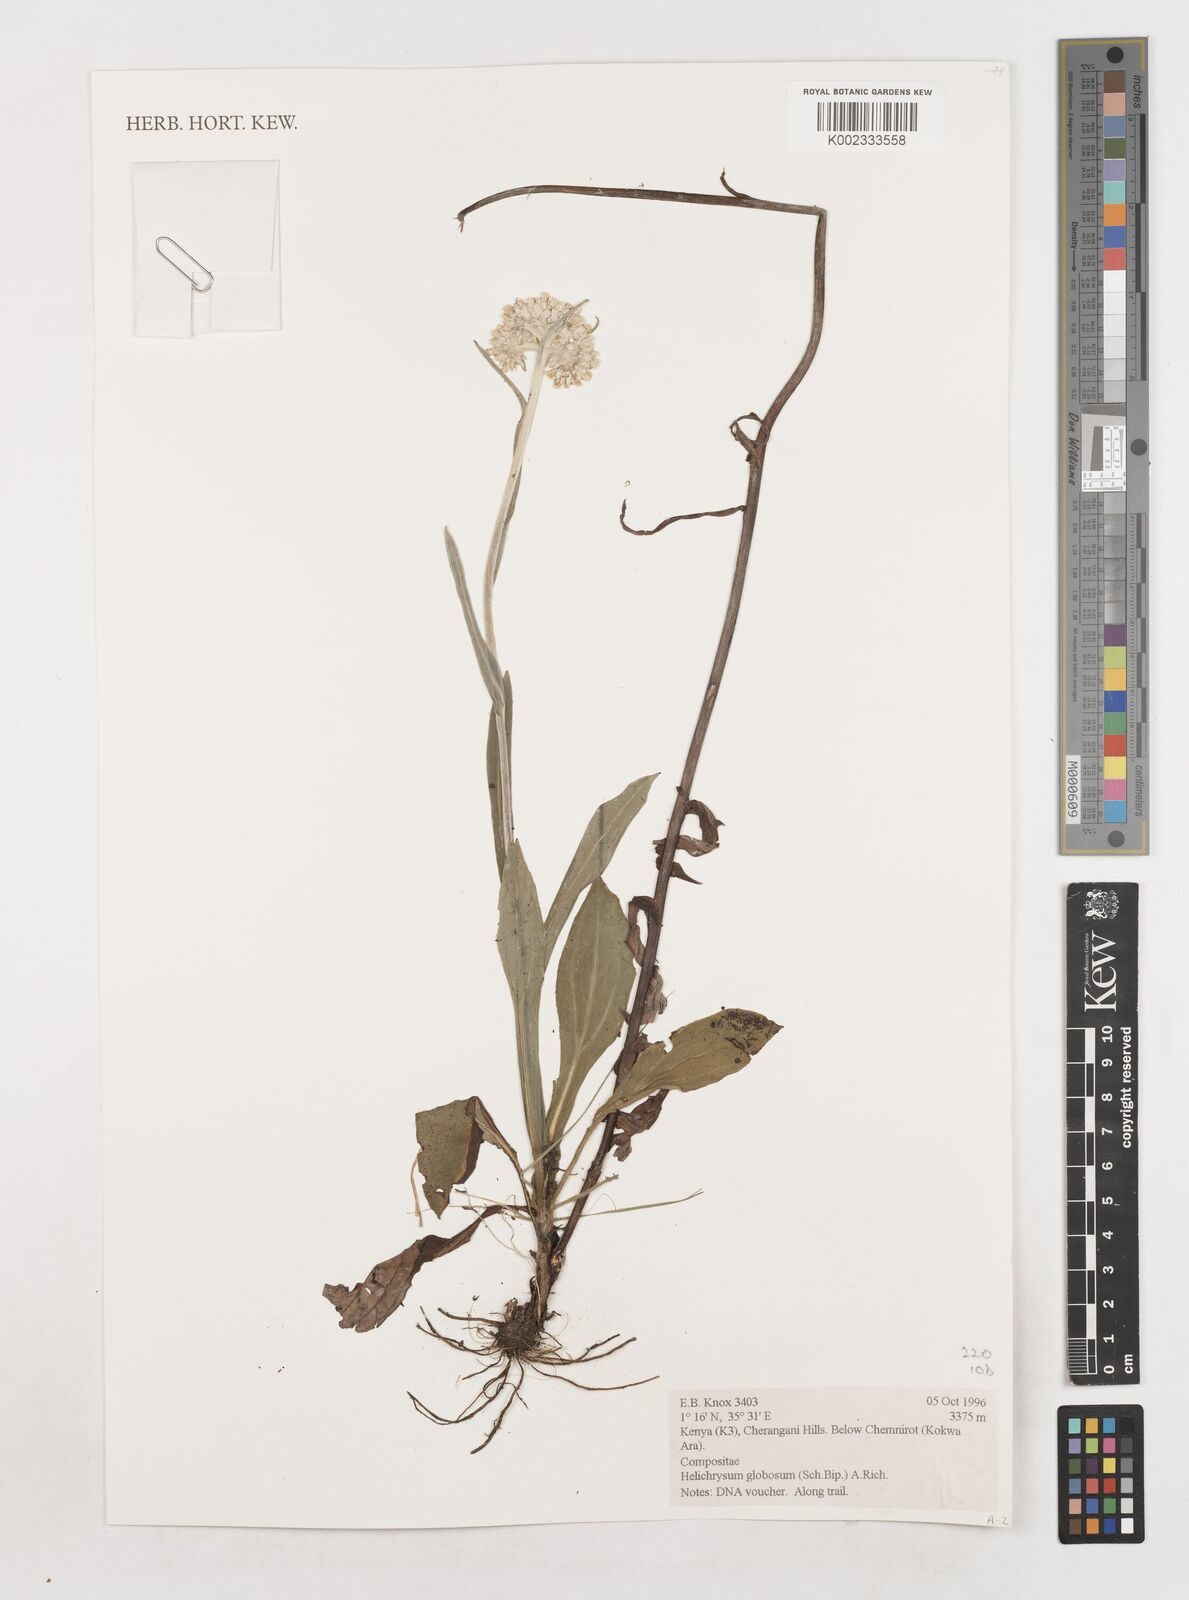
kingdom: Plantae
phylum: Tracheophyta
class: Magnoliopsida
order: Asterales
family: Asteraceae
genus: Helichrysum
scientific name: Helichrysum globosum
